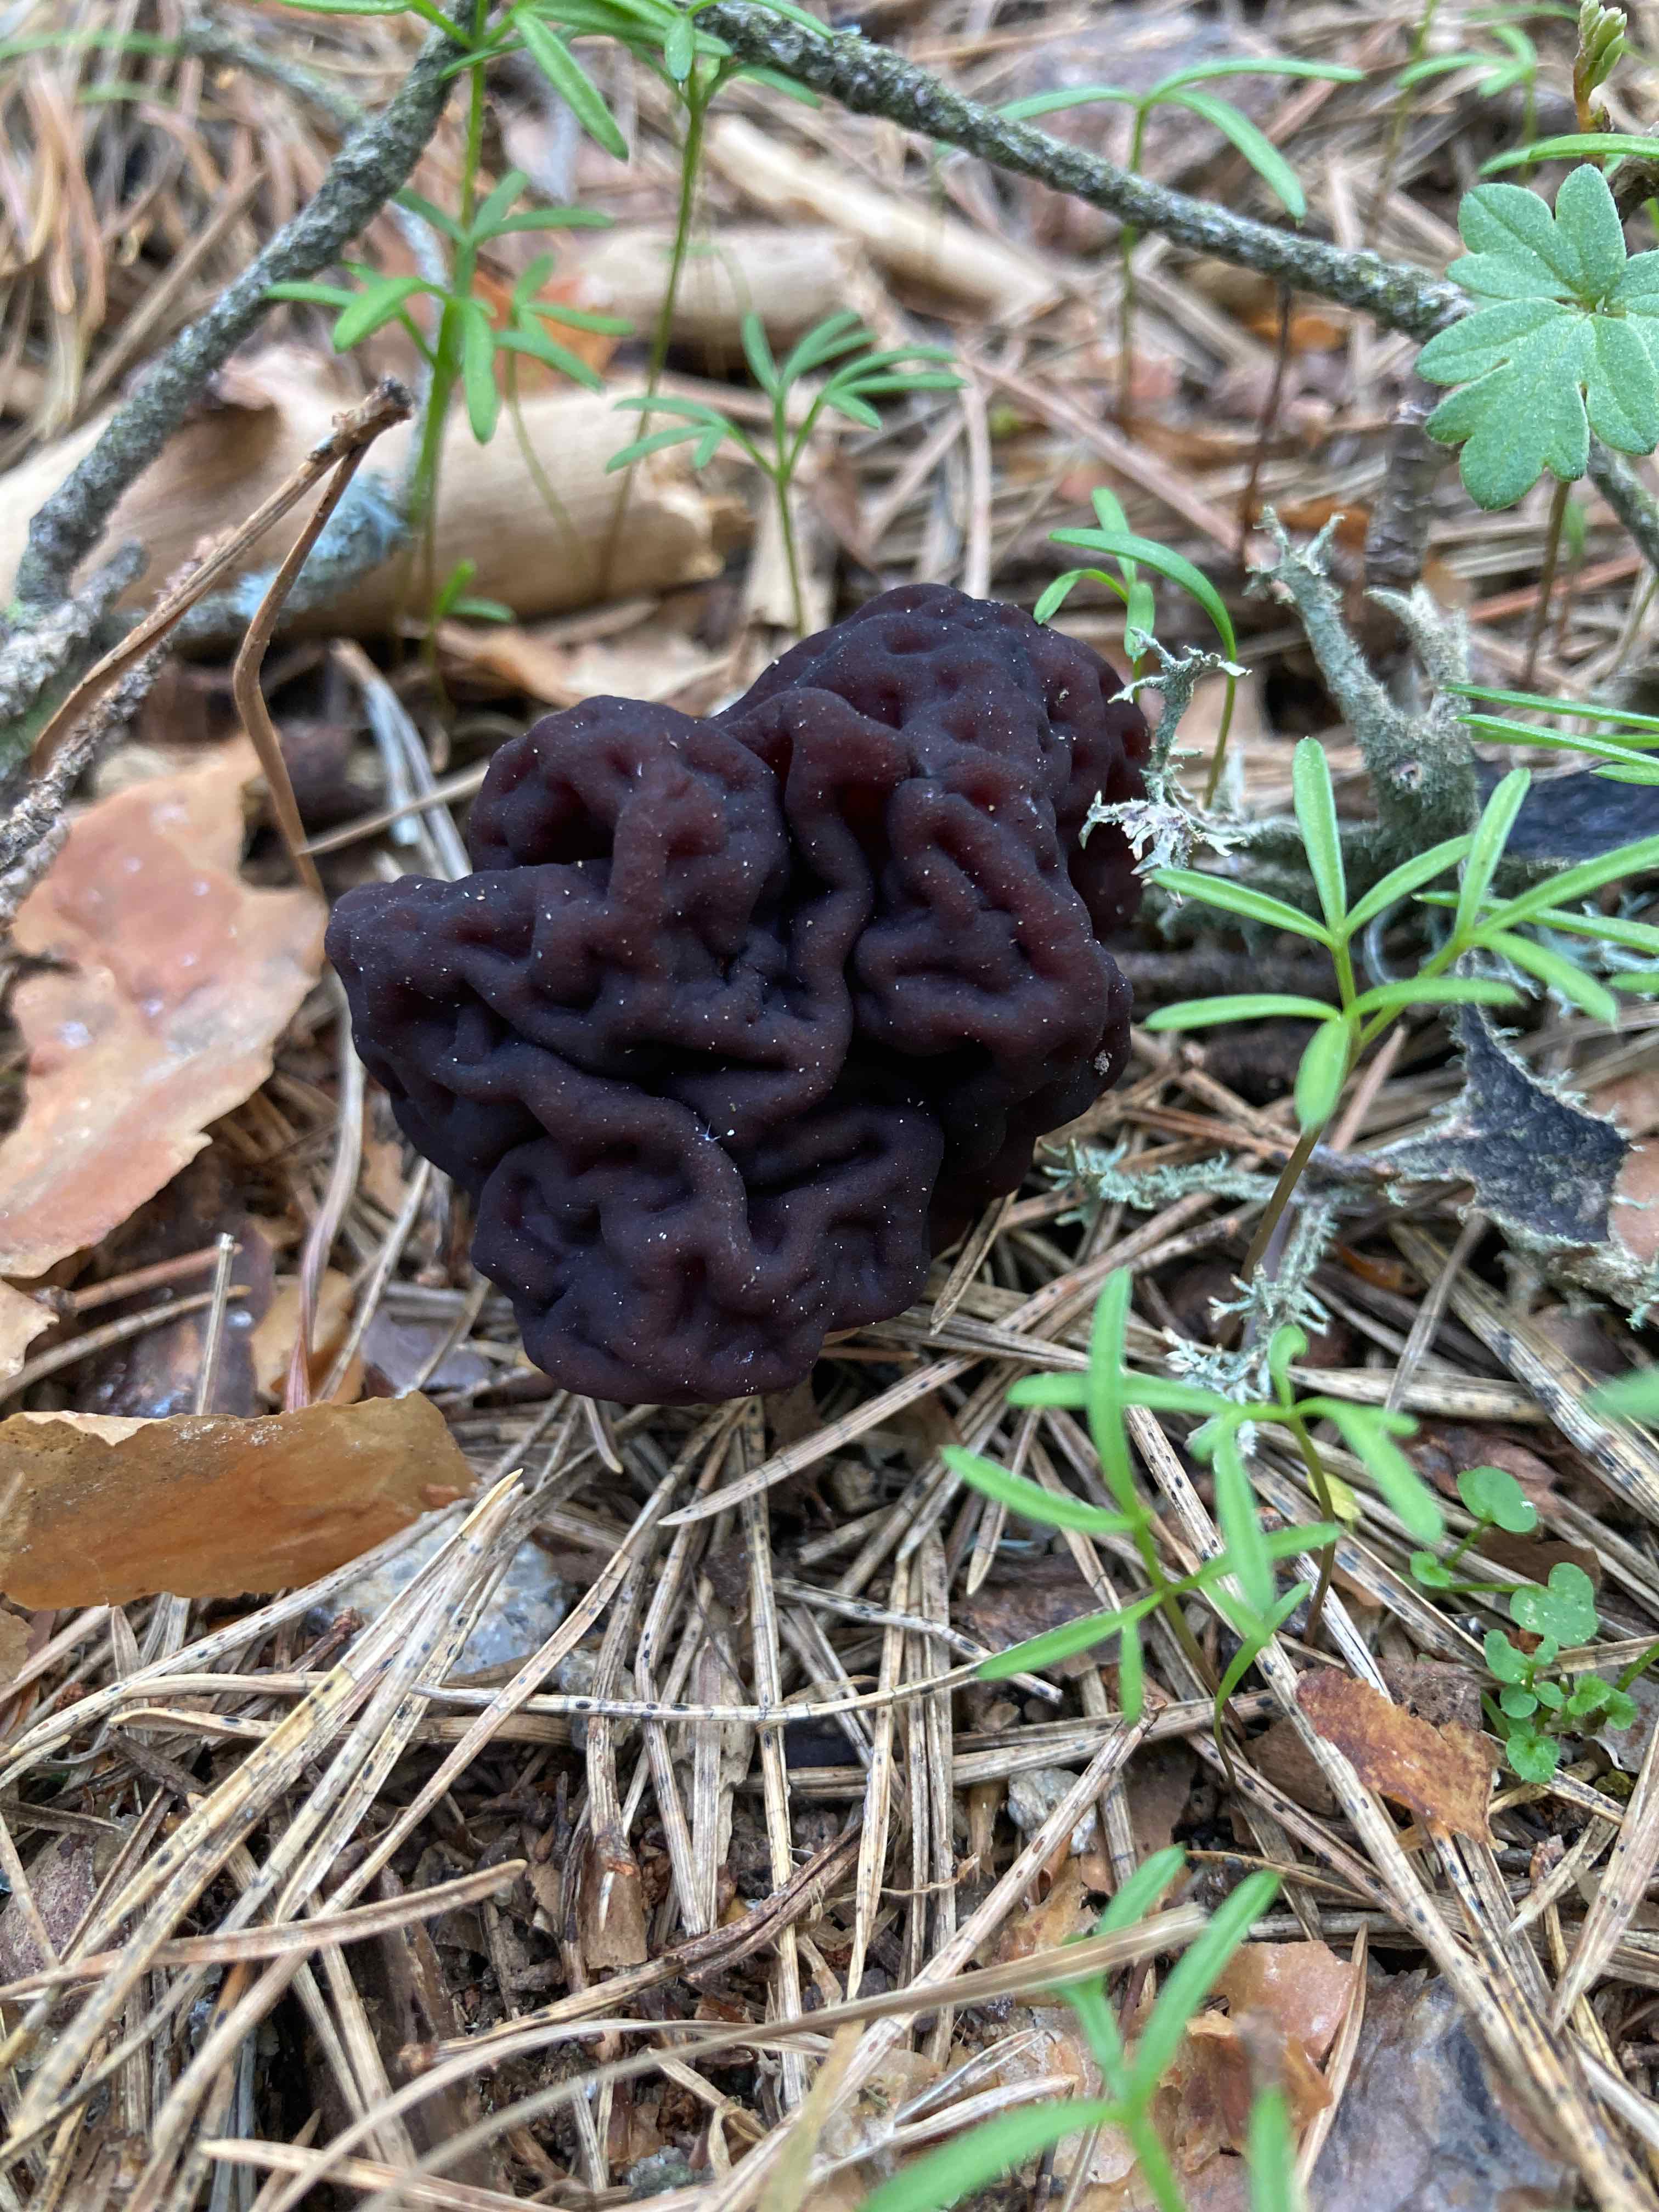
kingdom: Fungi
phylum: Ascomycota
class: Pezizomycetes
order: Pezizales
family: Discinaceae
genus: Gyromitra
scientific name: Gyromitra esculenta
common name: ægte stenmorkel
